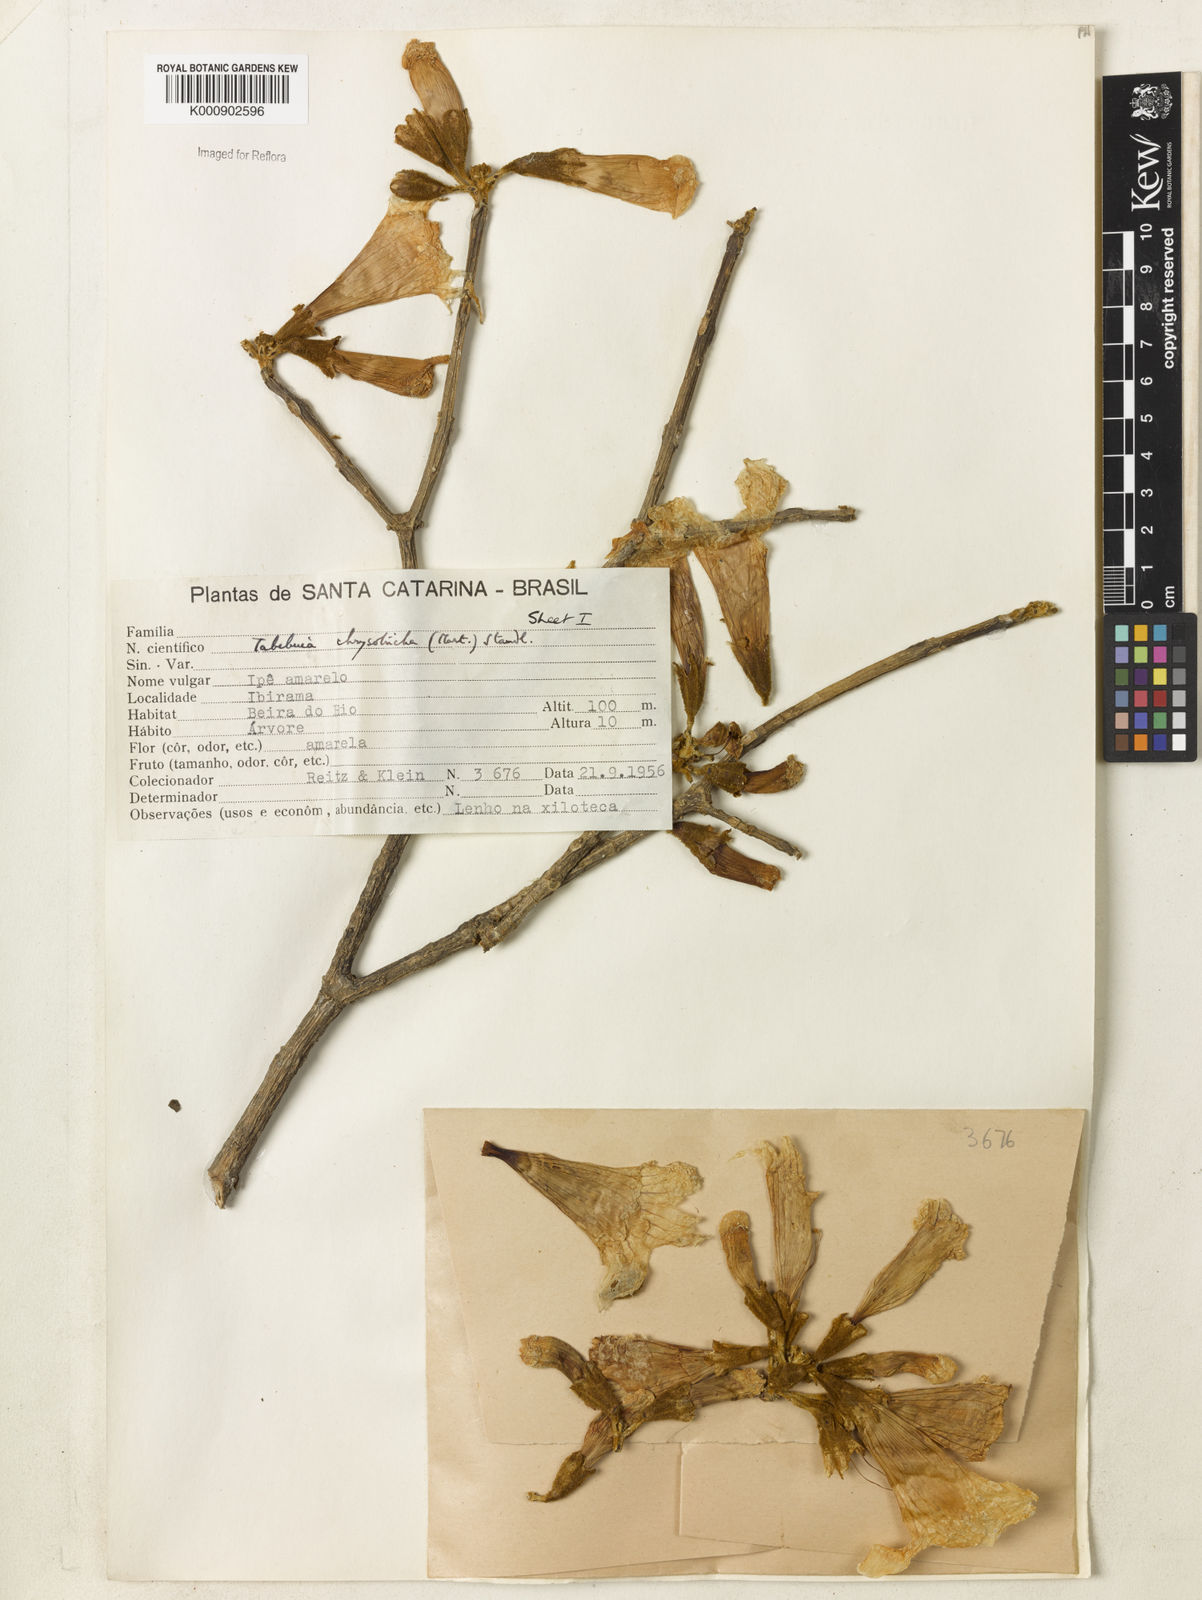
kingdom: Plantae
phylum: Tracheophyta
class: Magnoliopsida
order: Lamiales
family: Bignoniaceae
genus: Handroanthus
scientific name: Handroanthus chrysotrichus
